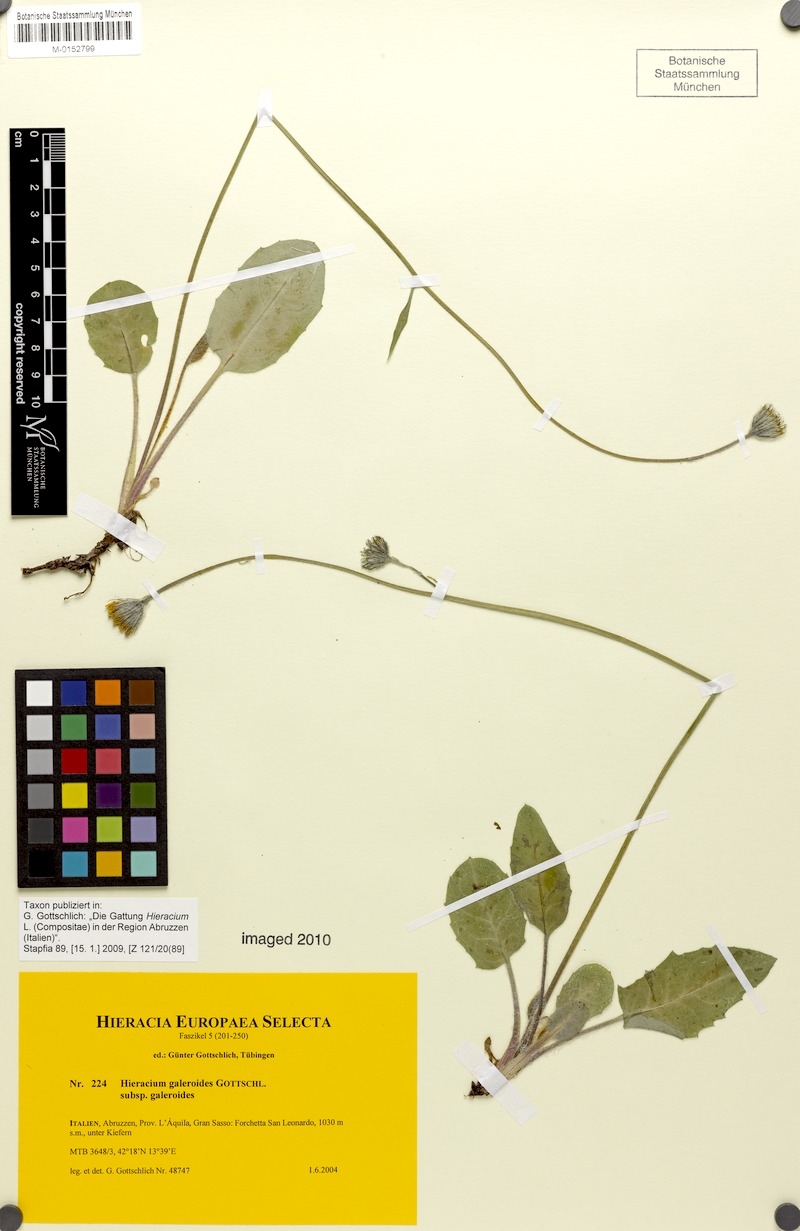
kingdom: Plantae
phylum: Tracheophyta
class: Magnoliopsida
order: Asterales
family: Asteraceae
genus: Hieracium
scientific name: Hieracium galeroides
